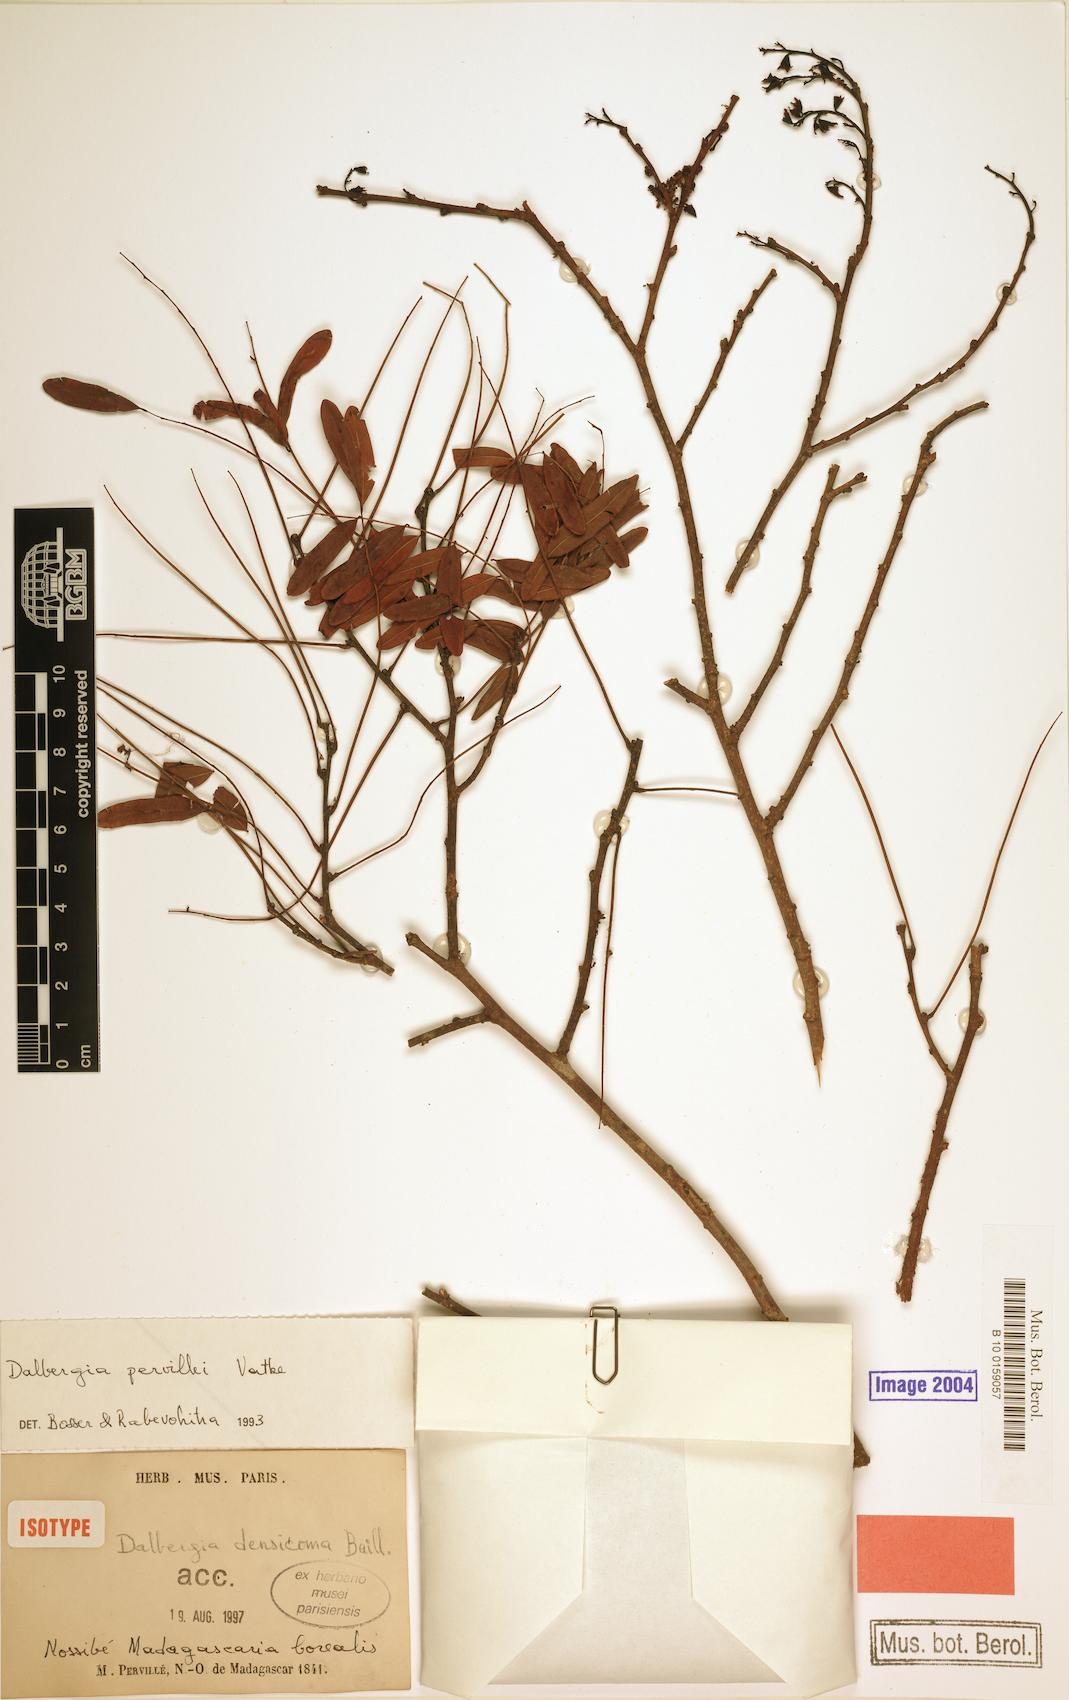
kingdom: Plantae
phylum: Tracheophyta
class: Magnoliopsida
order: Fabales
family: Fabaceae
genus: Dalbergia
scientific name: Dalbergia pervillei
